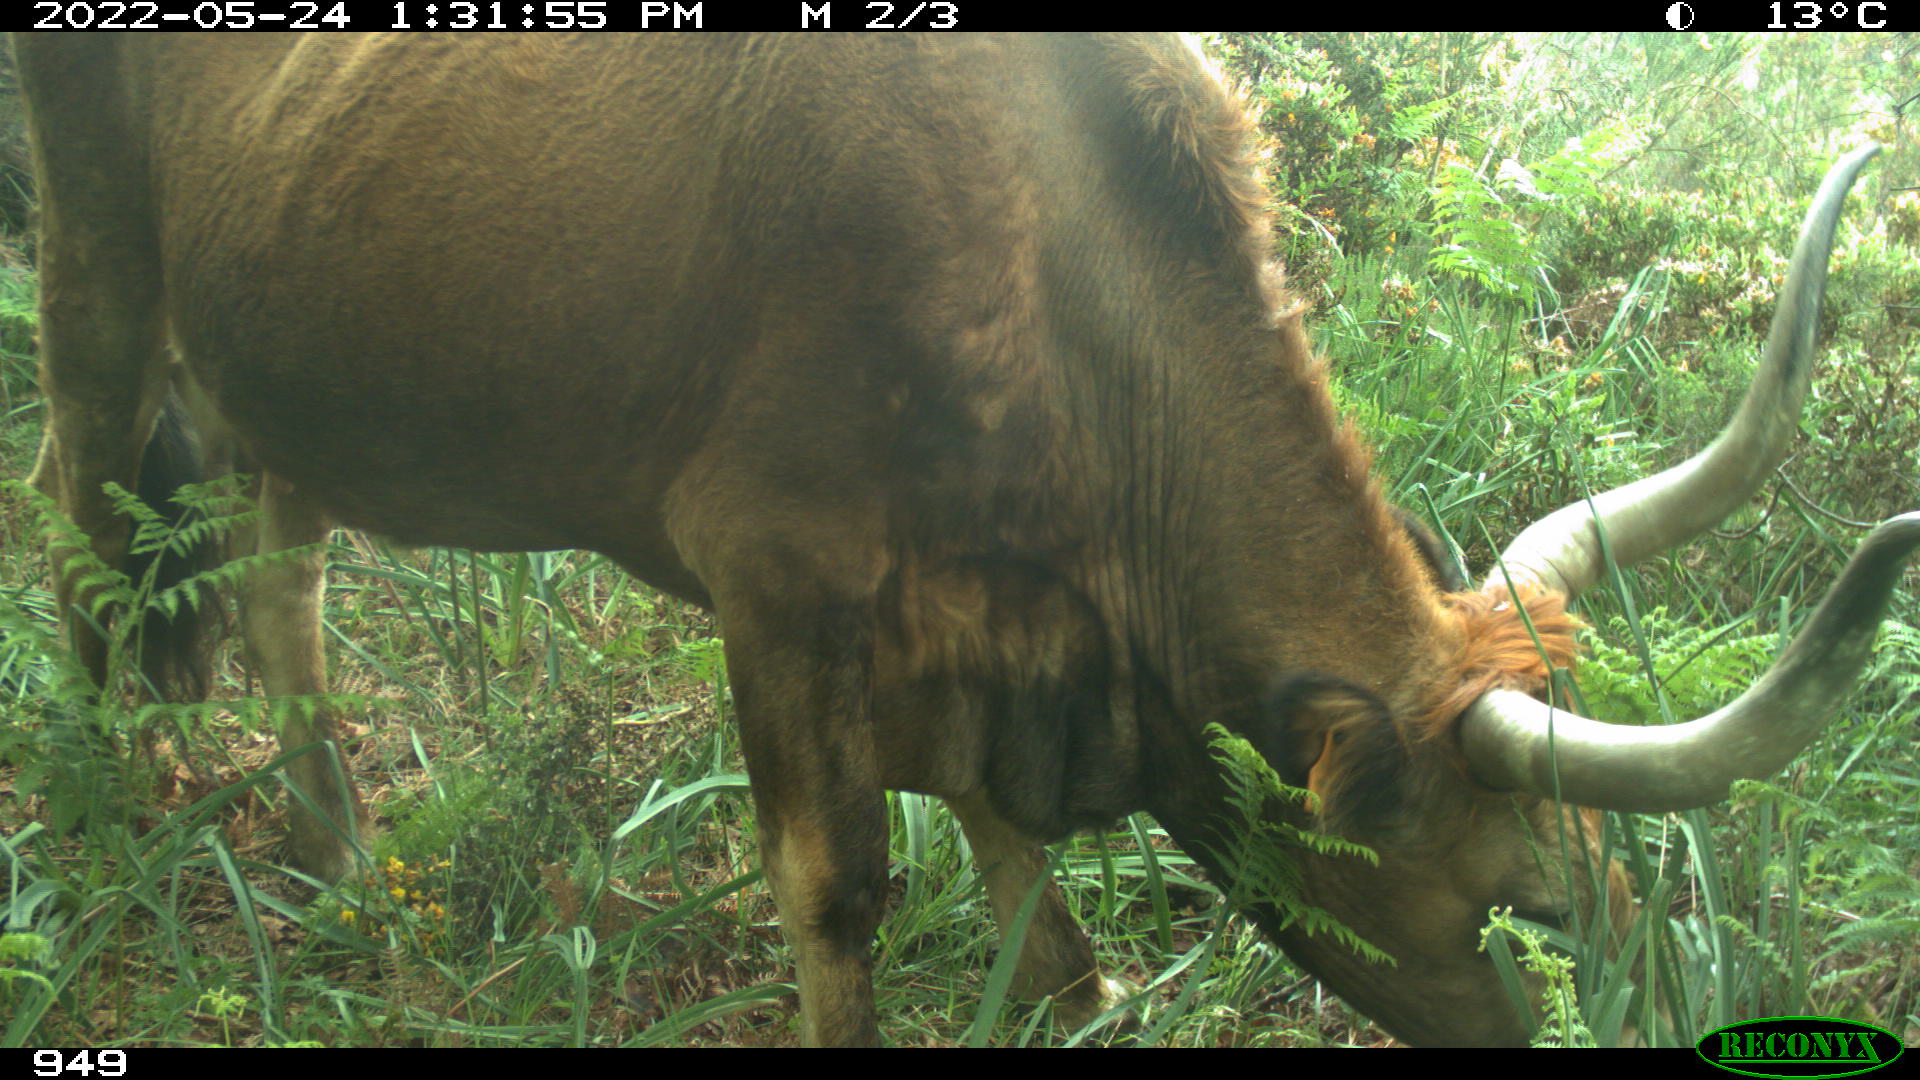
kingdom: Animalia
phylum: Chordata
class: Mammalia
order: Artiodactyla
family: Bovidae
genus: Bos
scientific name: Bos taurus
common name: Domesticated cattle
